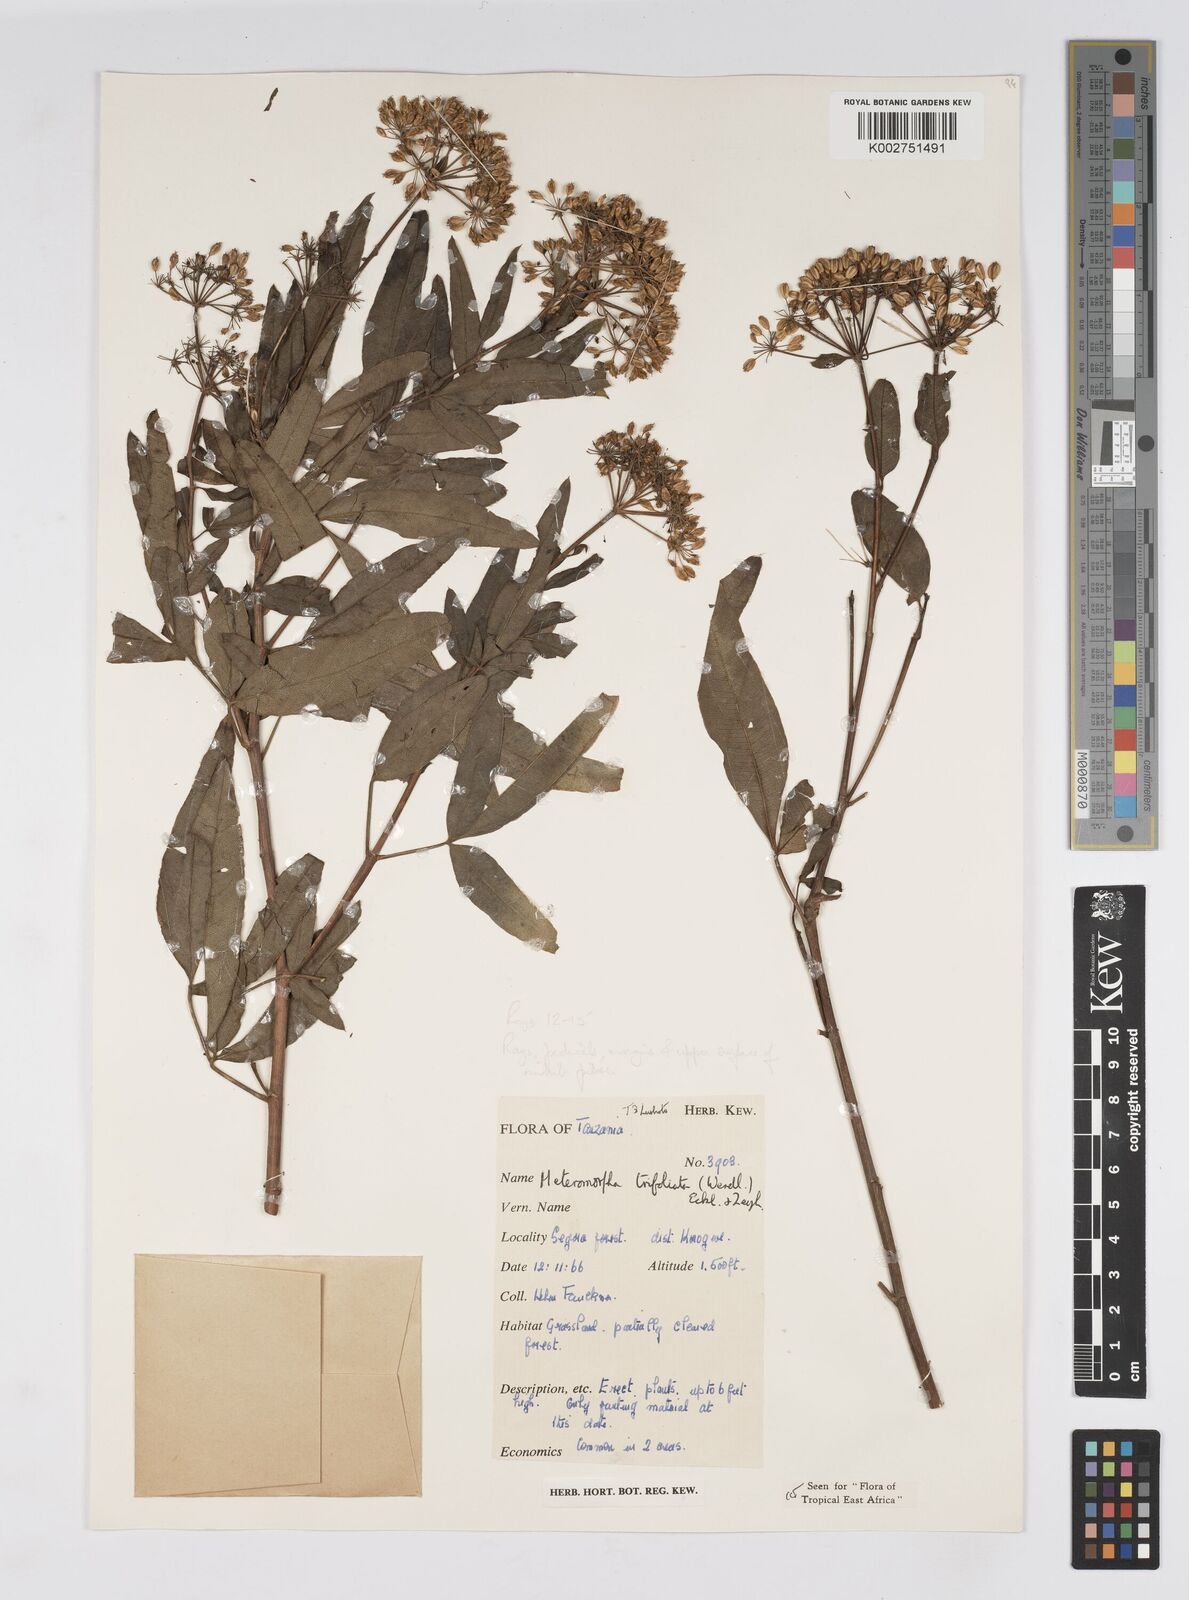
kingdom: Plantae
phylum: Tracheophyta
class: Magnoliopsida
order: Apiales
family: Apiaceae
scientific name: Apiaceae
